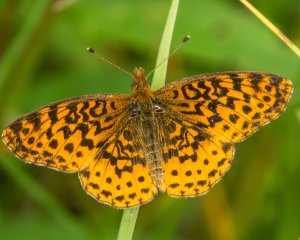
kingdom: Animalia
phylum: Arthropoda
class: Insecta
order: Lepidoptera
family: Nymphalidae
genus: Clossiana
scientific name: Clossiana toddi
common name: Meadow Fritillary
